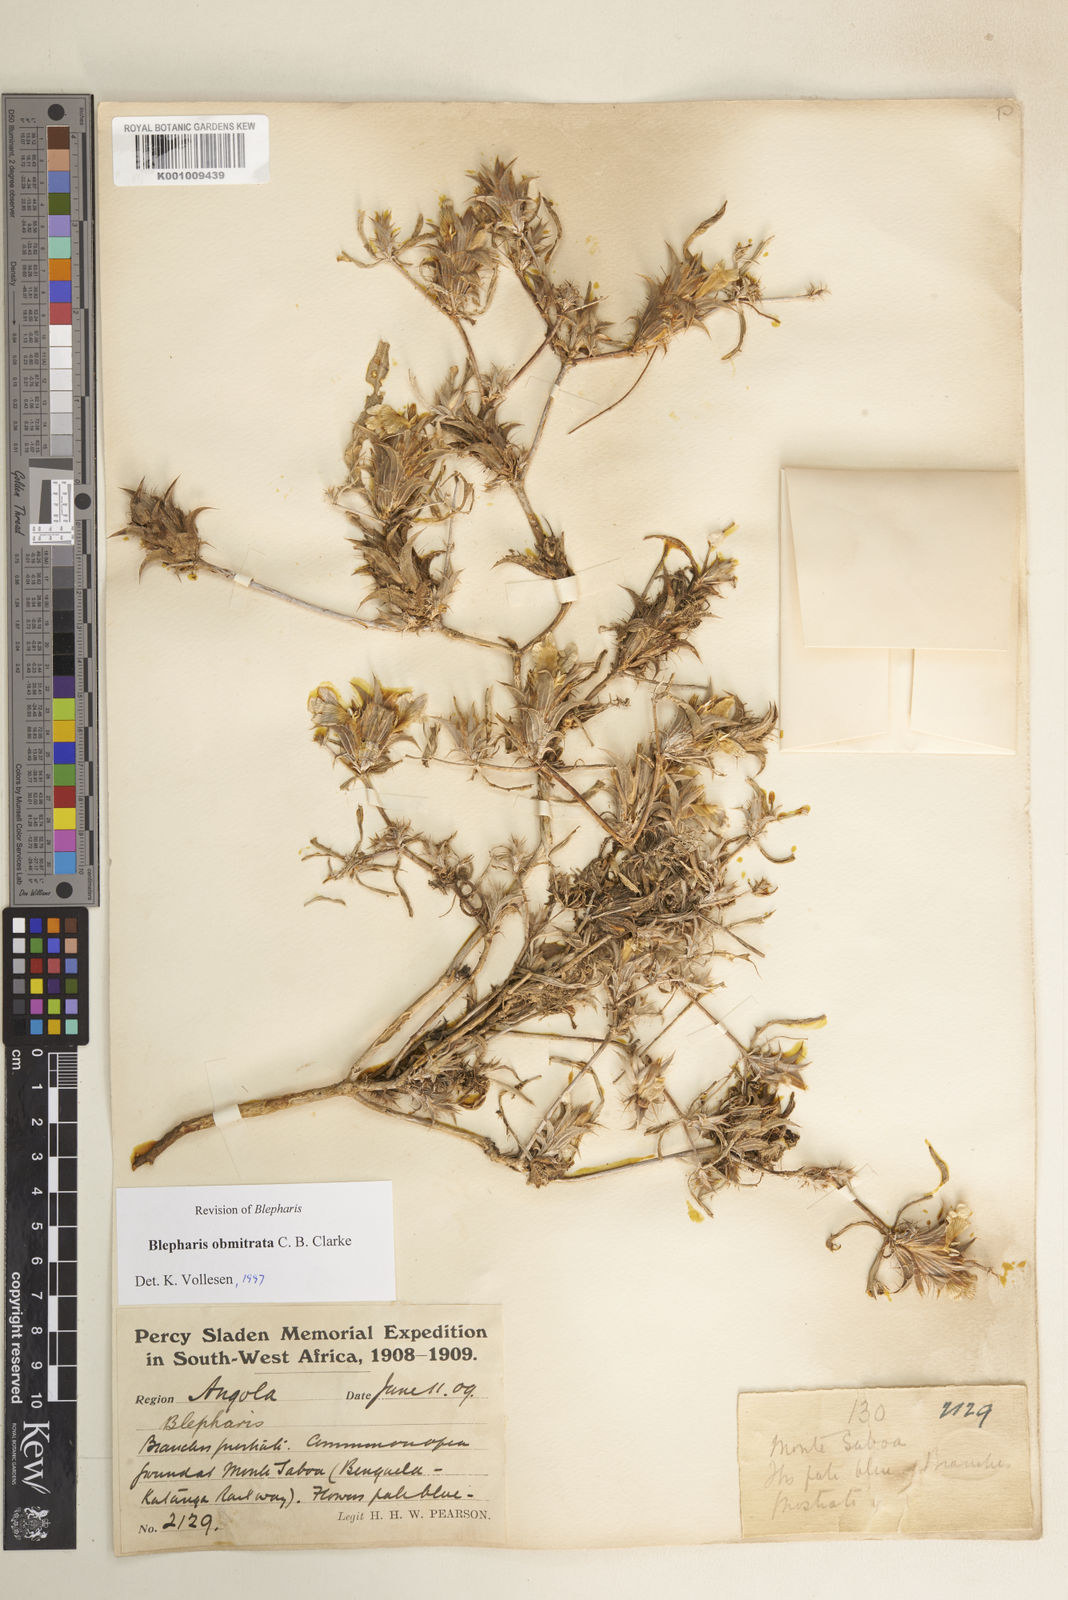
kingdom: Plantae
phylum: Tracheophyta
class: Magnoliopsida
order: Lamiales
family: Acanthaceae
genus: Blepharis
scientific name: Blepharis obmitrata
